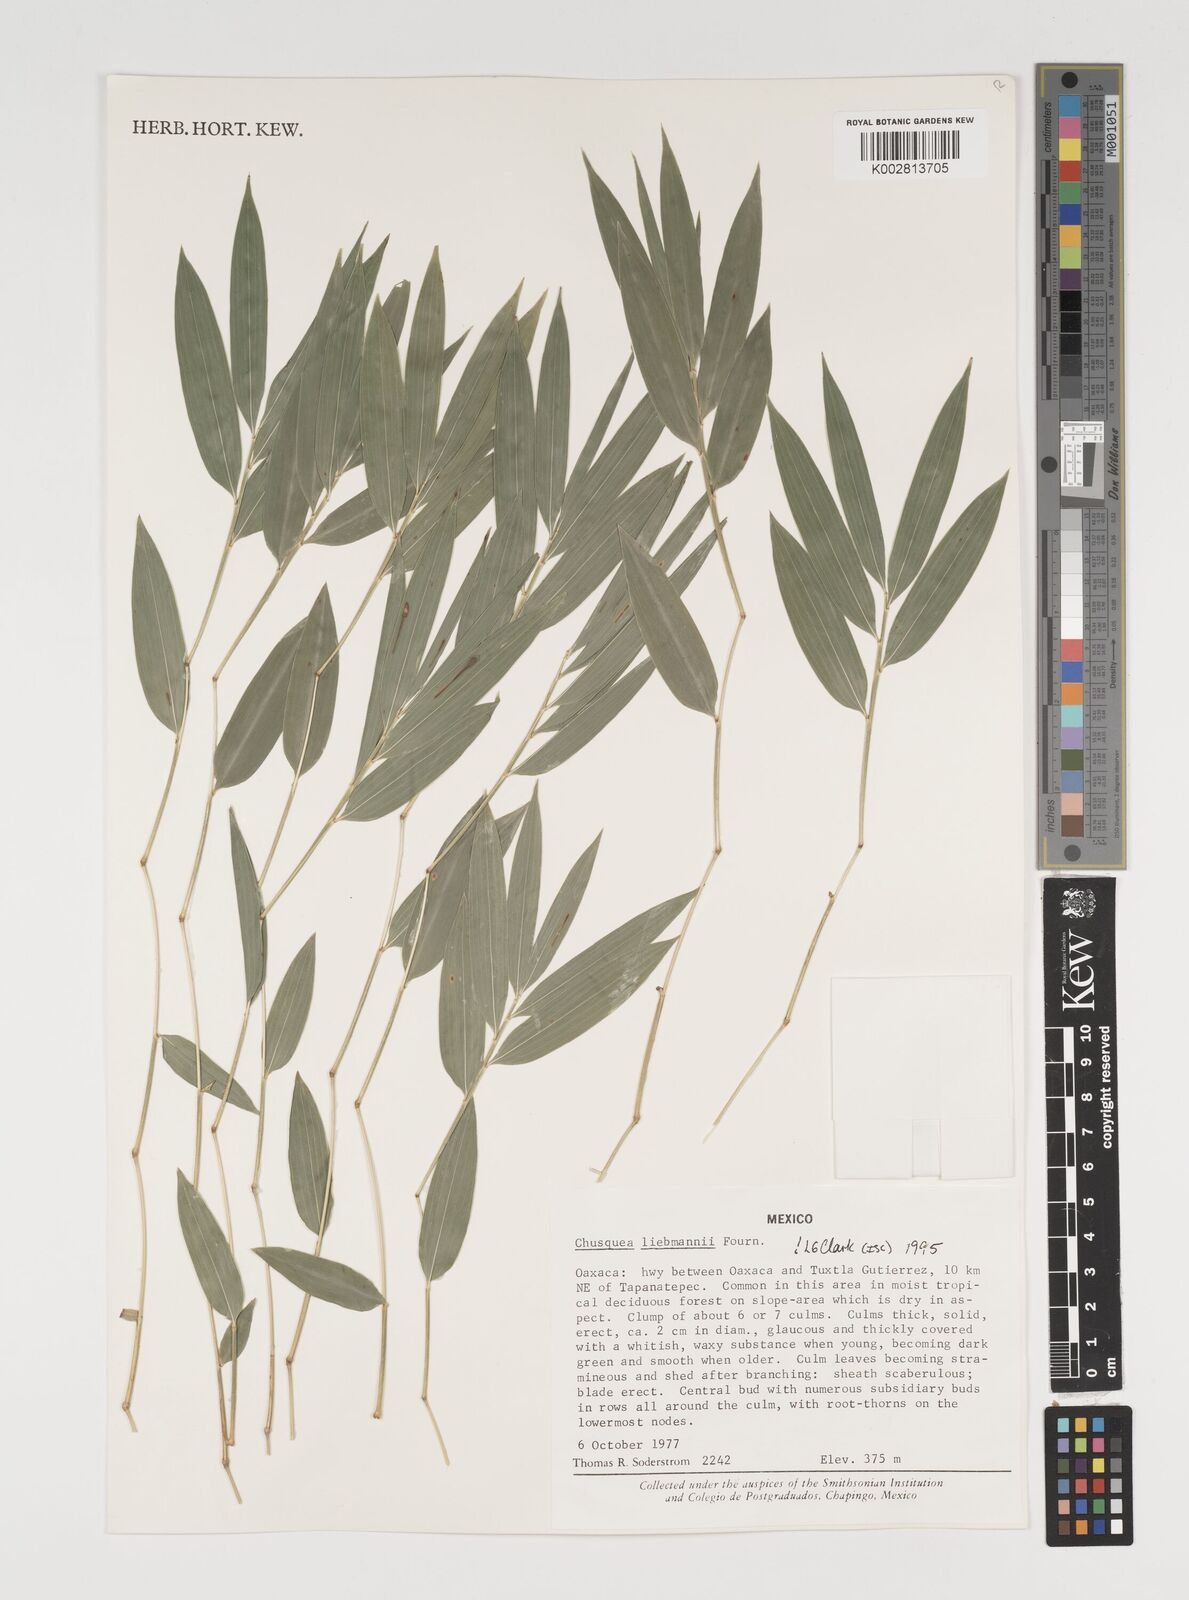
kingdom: Plantae
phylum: Tracheophyta
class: Liliopsida
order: Poales
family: Poaceae
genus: Chusquea
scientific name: Chusquea liebmannii
